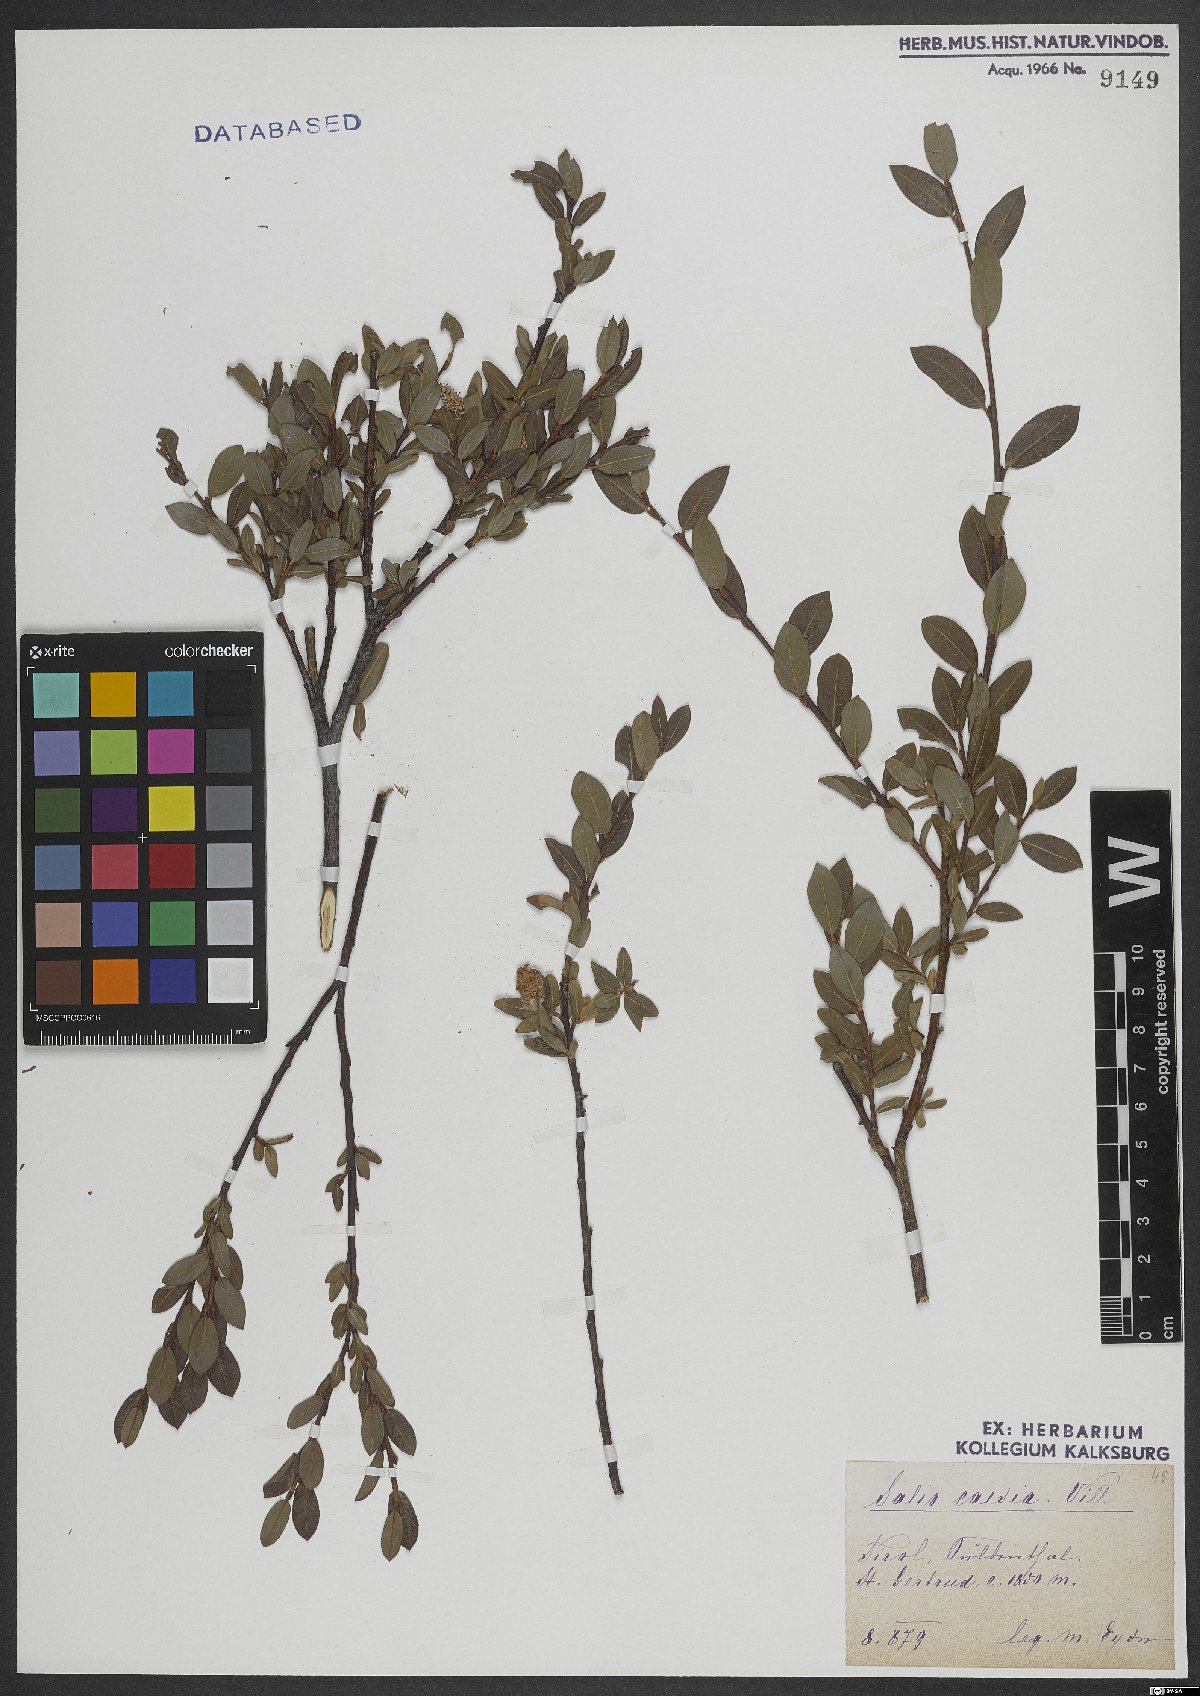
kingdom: Plantae
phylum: Tracheophyta
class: Magnoliopsida
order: Malpighiales
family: Salicaceae
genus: Salix
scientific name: Salix caesia
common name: Blue willow
